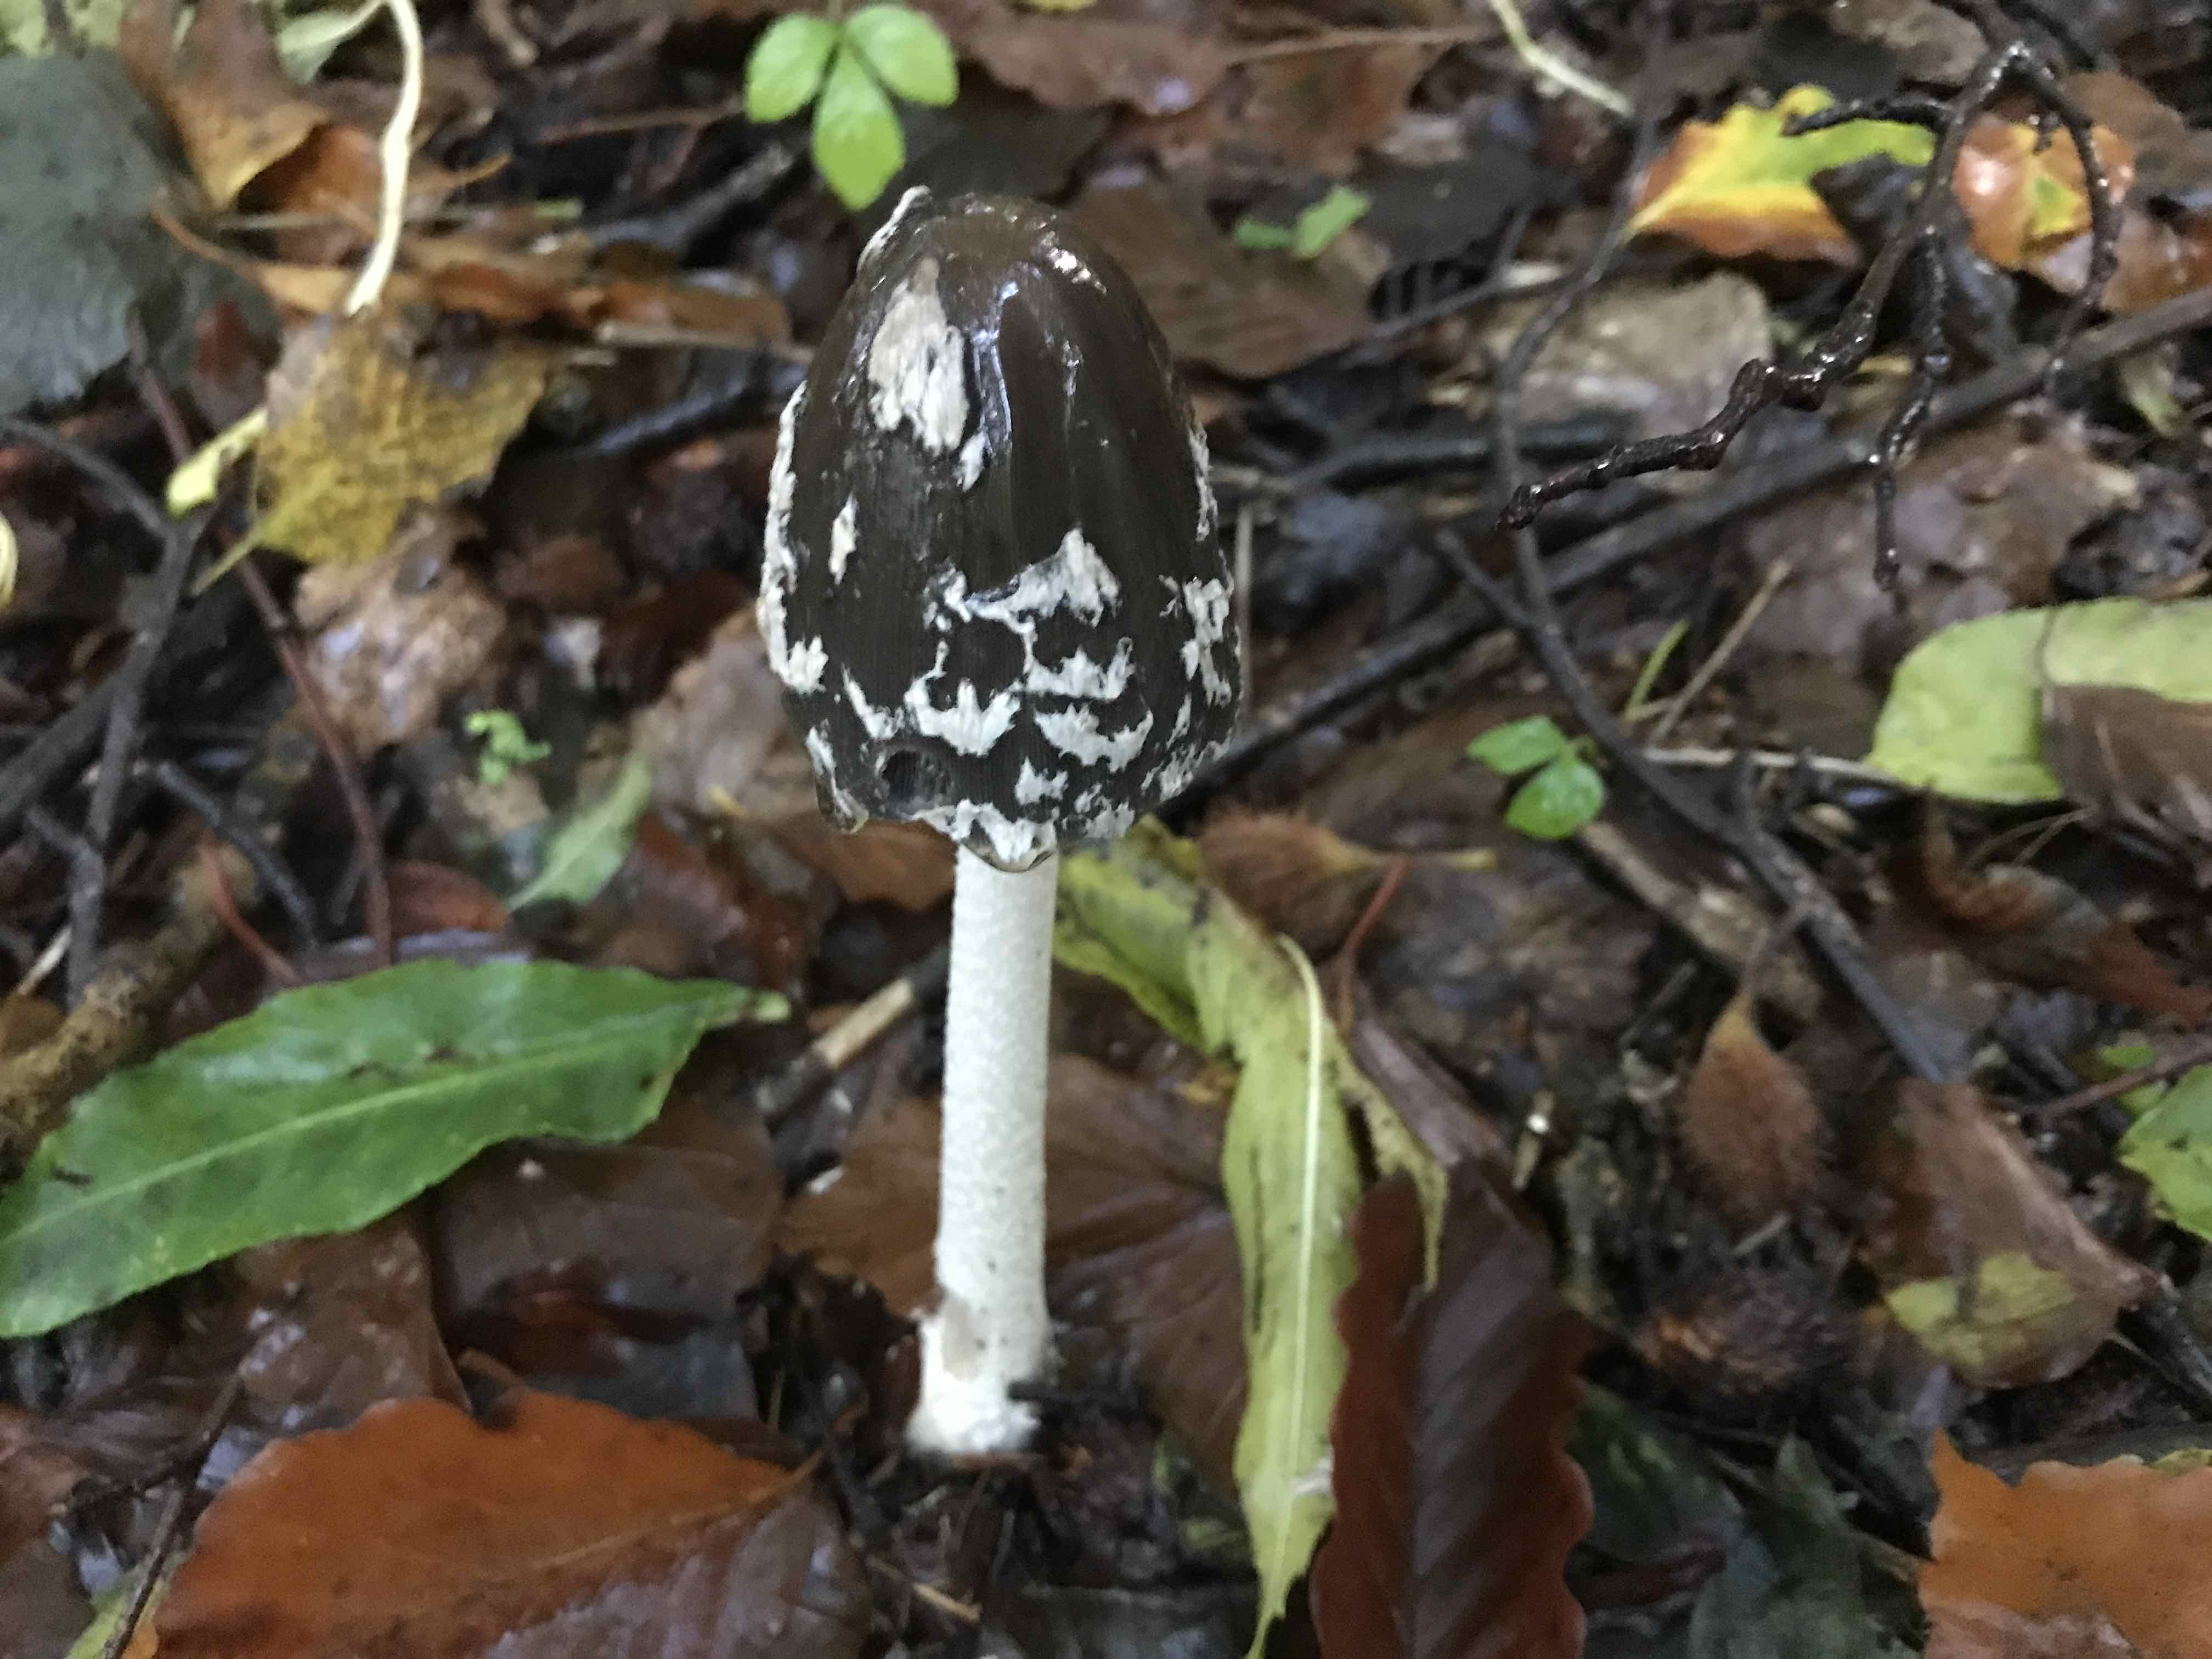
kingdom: Fungi
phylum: Basidiomycota
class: Agaricomycetes
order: Agaricales
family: Psathyrellaceae
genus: Coprinopsis
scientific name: Coprinopsis picacea
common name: skade-blækhat
